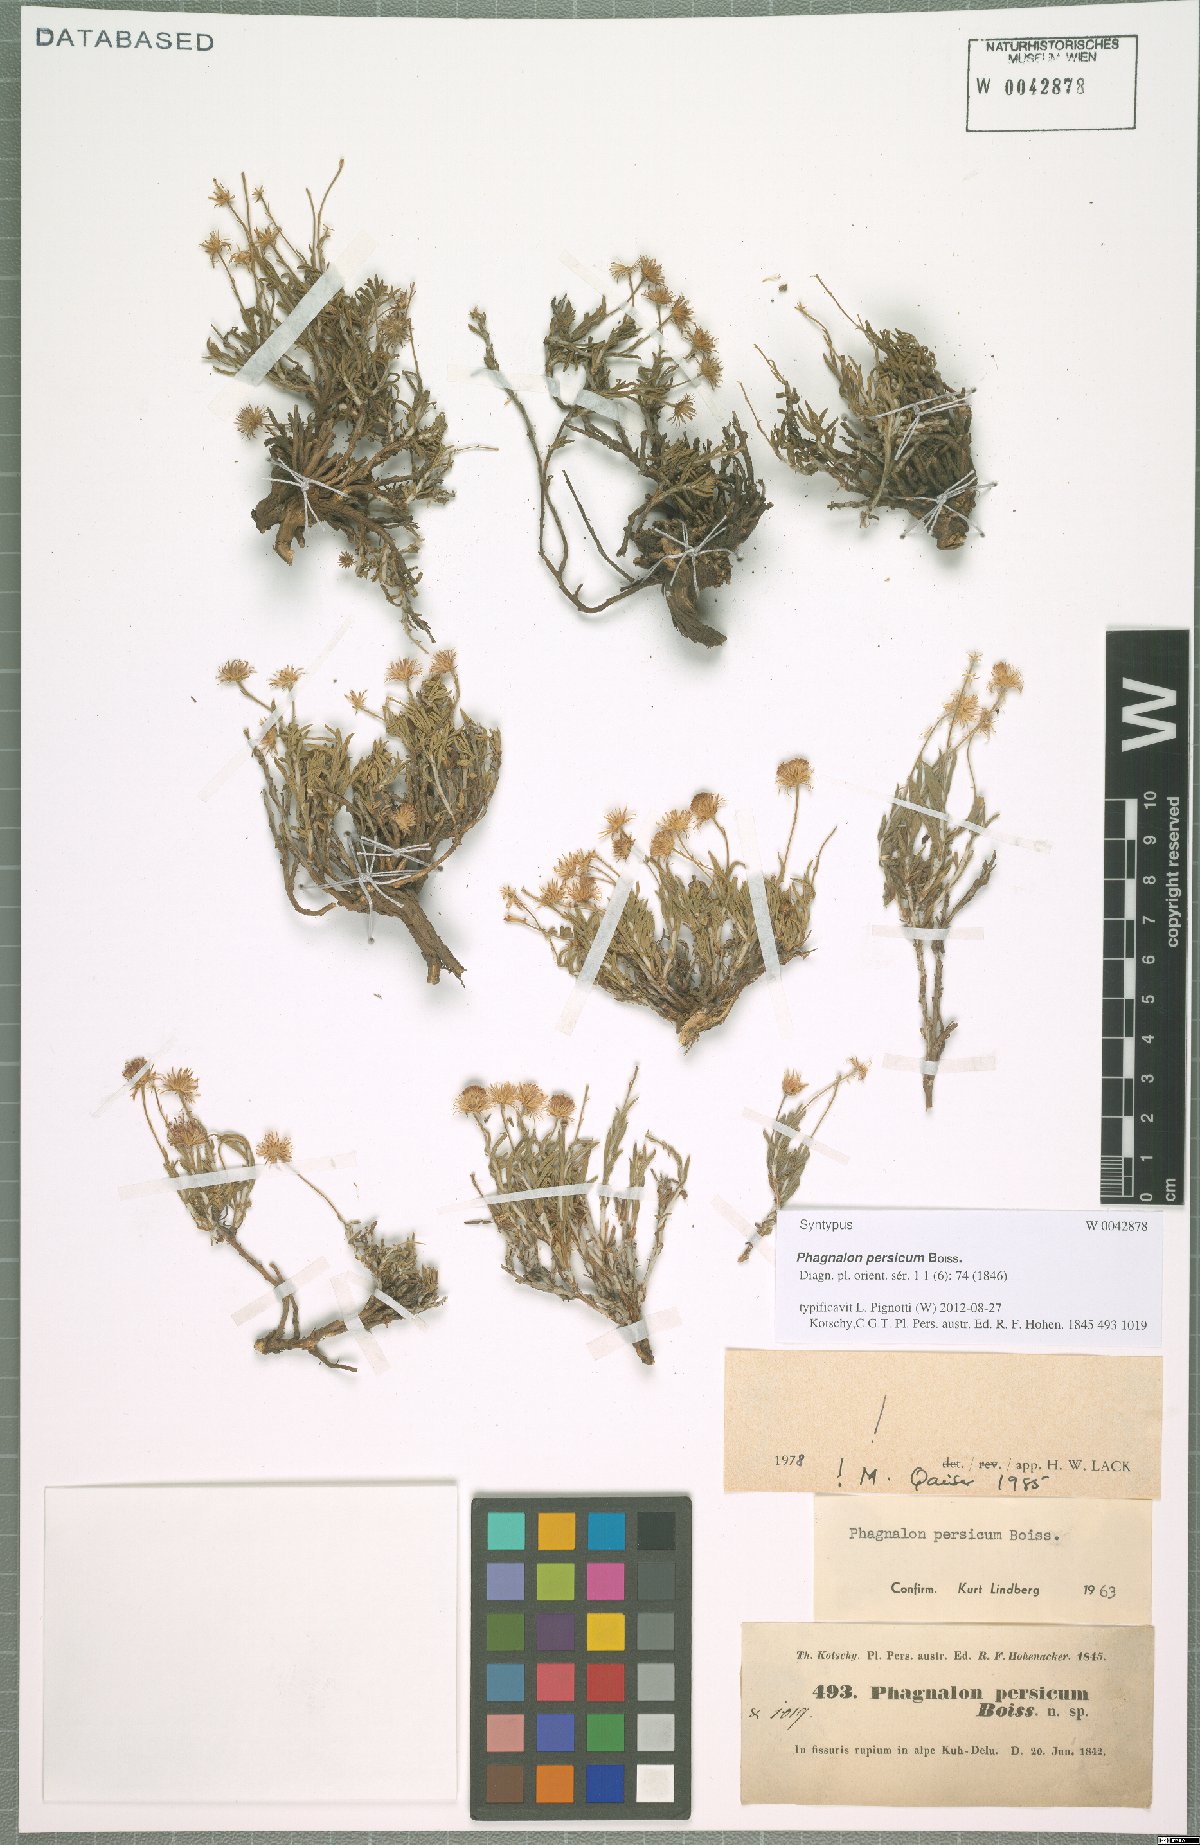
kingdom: Plantae
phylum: Tracheophyta
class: Magnoliopsida
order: Asterales
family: Asteraceae
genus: Phagnalon
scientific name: Phagnalon persicum
